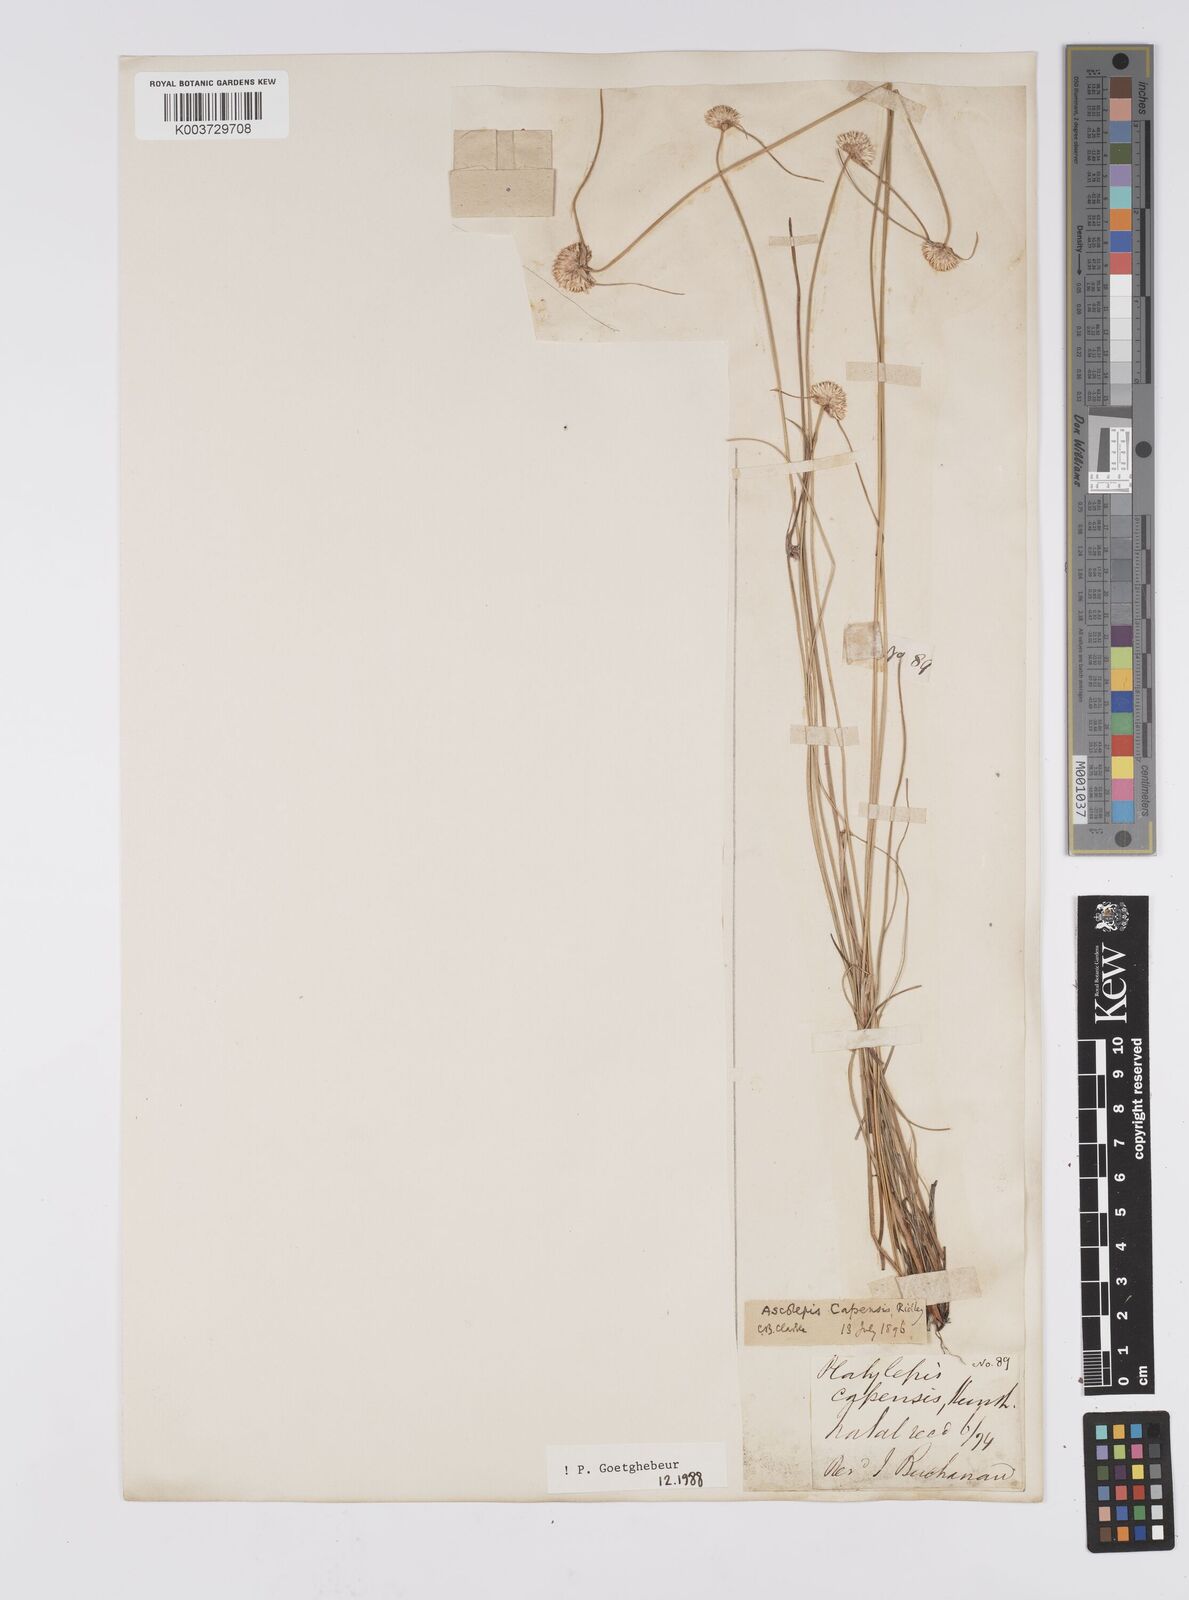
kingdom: Plantae
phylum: Tracheophyta
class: Liliopsida
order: Poales
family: Cyperaceae
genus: Cyperus
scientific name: Cyperus capensis
